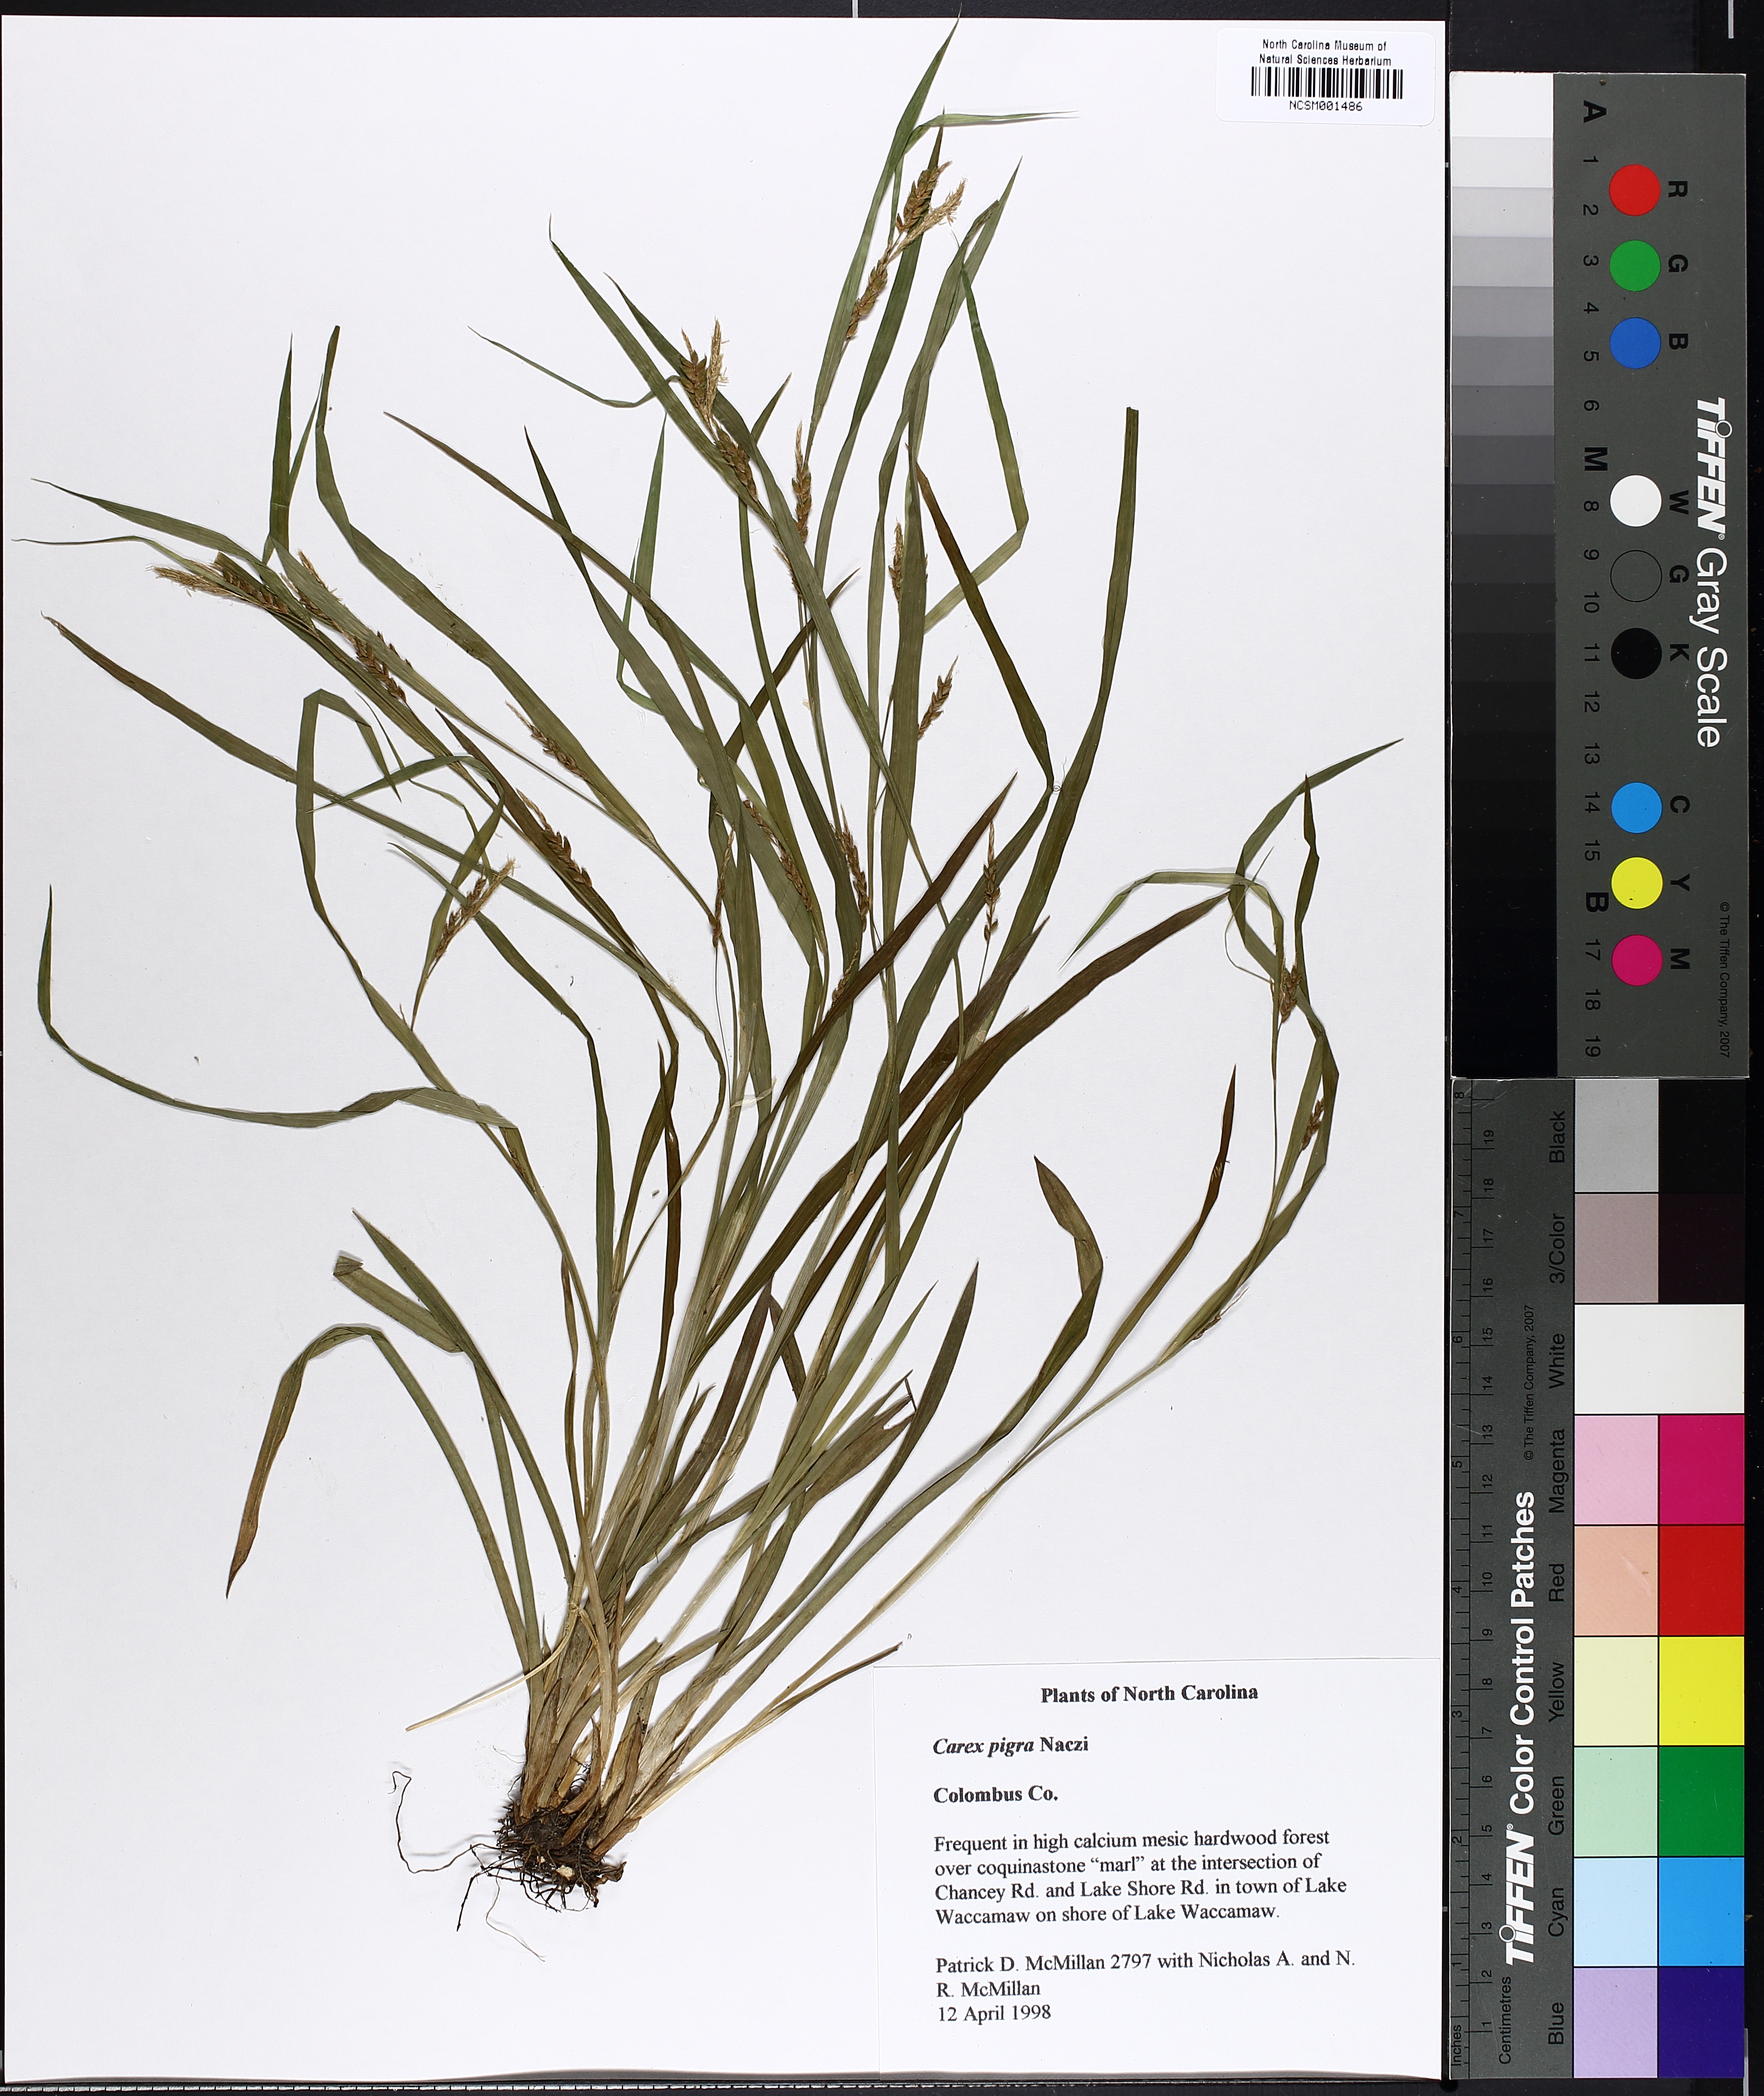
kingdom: Plantae
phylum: Tracheophyta
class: Liliopsida
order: Poales
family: Cyperaceae
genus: Carex
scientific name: Carex pigra
